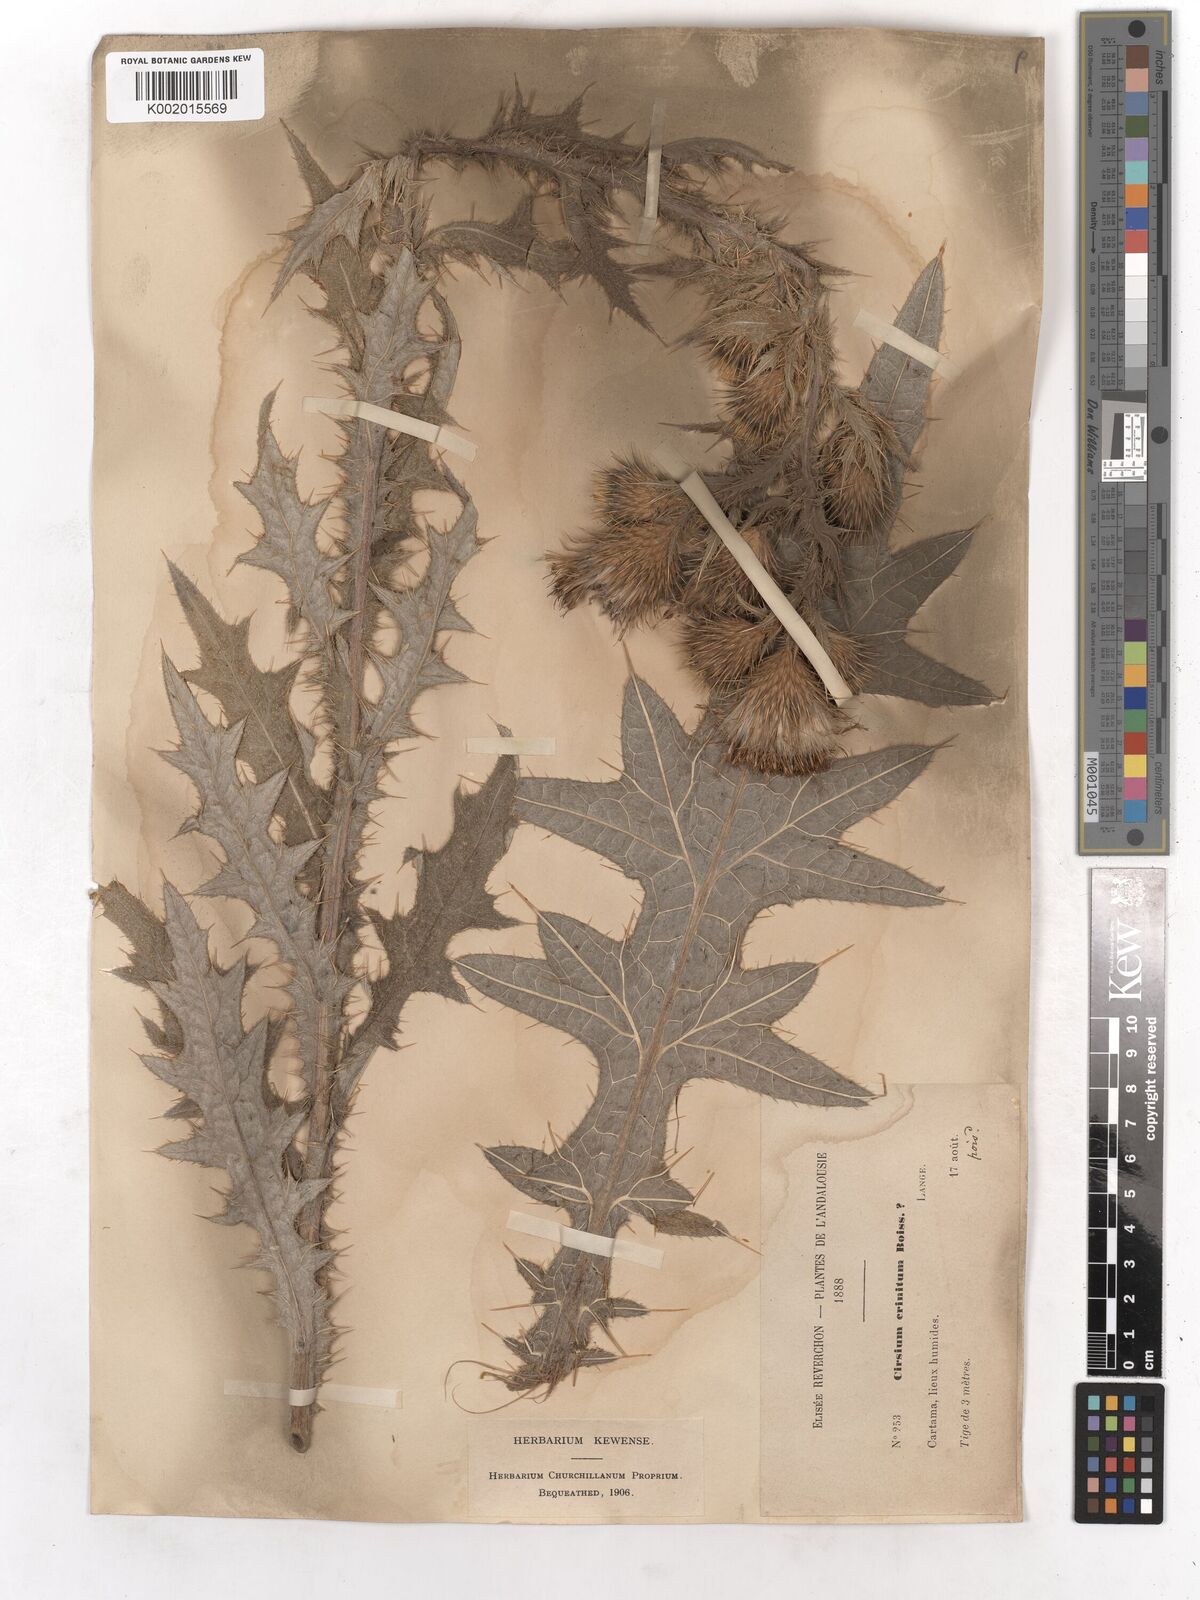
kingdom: Plantae
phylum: Tracheophyta
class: Magnoliopsida
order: Asterales
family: Asteraceae
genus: Cirsium
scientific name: Cirsium vulgare
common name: Bull thistle
